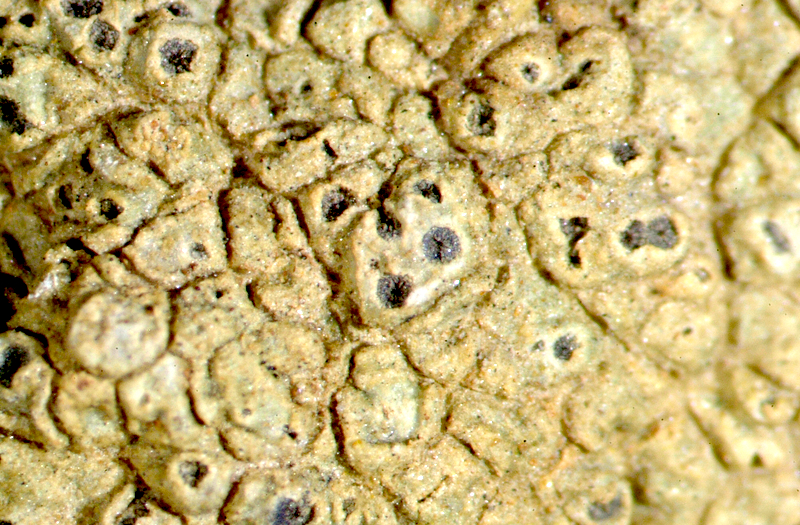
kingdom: Fungi
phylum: Ascomycota
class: Lecanoromycetes
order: Ostropales
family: Graphidaceae
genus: Diploschistes
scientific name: Diploschistes hensseniae
